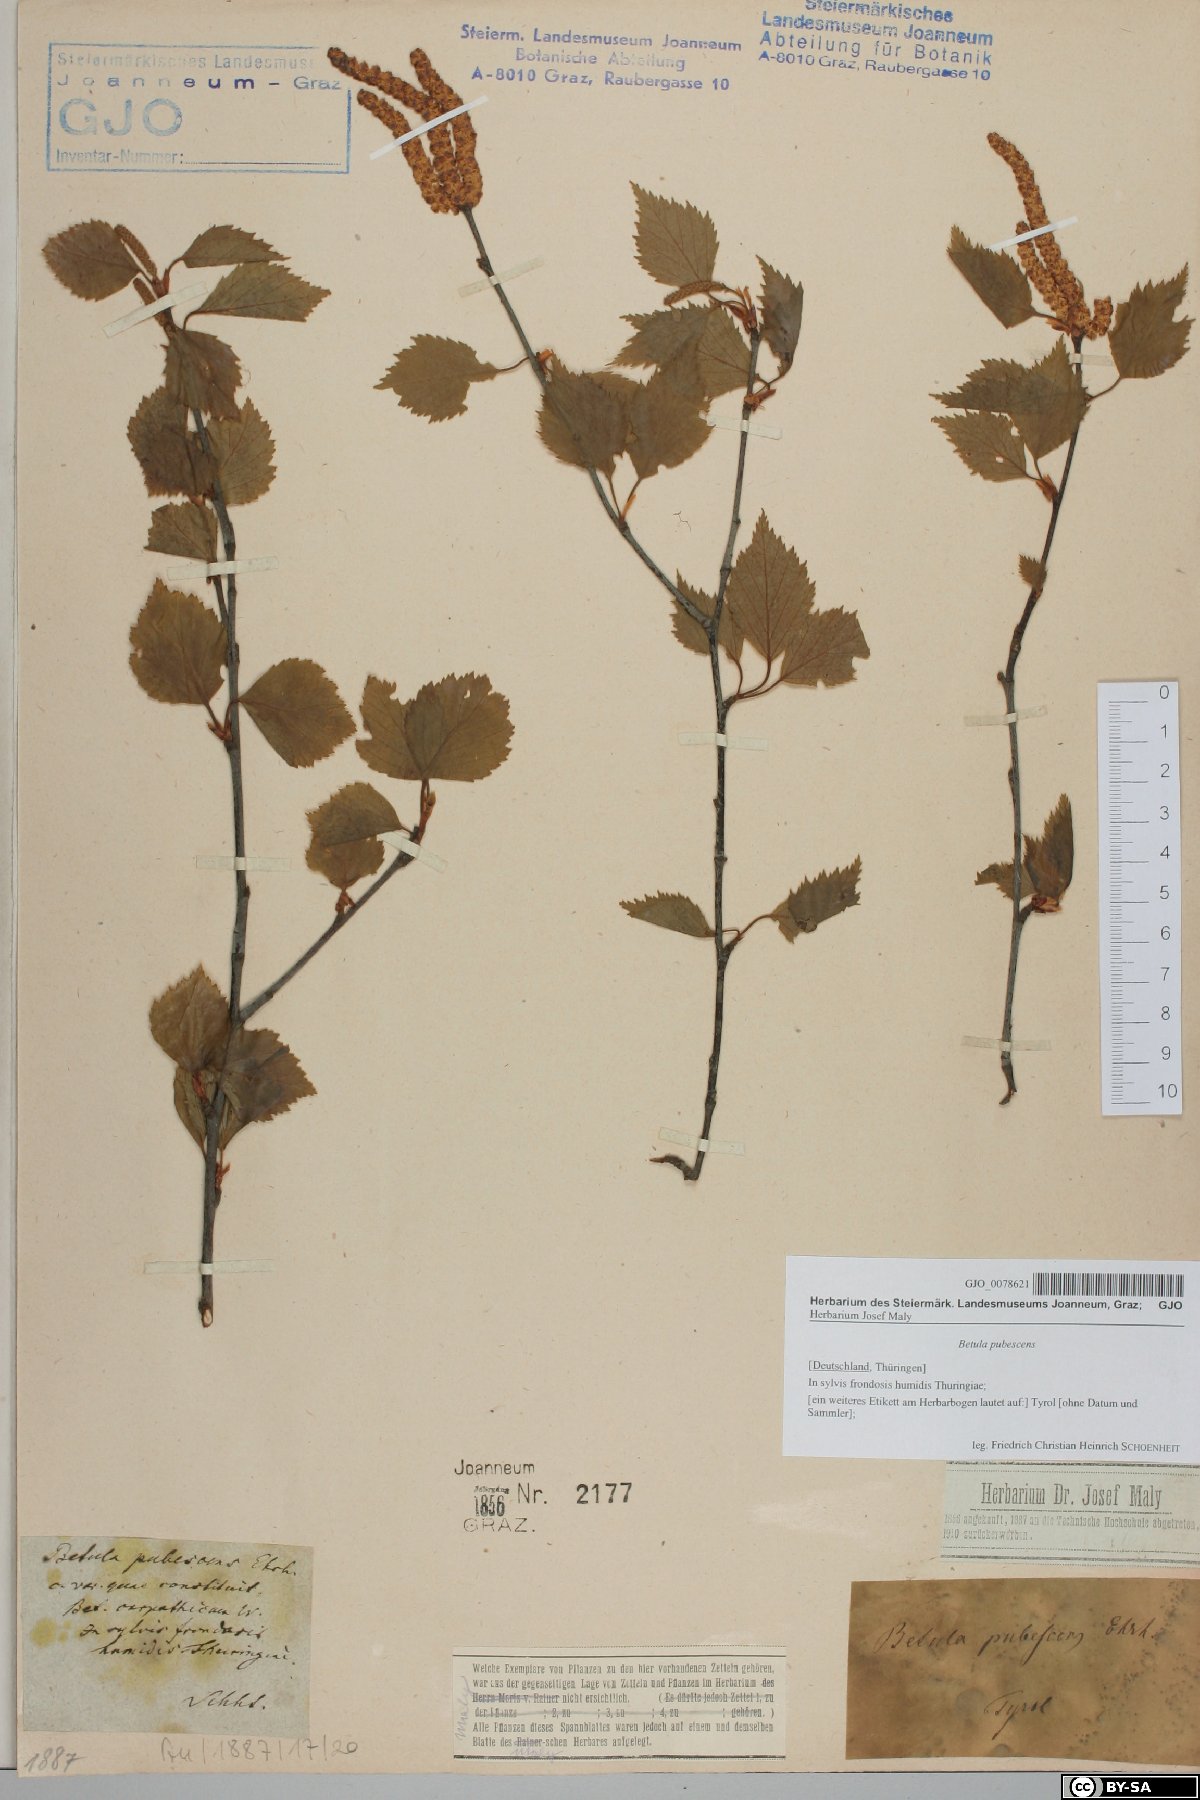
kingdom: Plantae
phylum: Tracheophyta
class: Magnoliopsida
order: Fagales
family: Betulaceae
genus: Betula
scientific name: Betula pubescens
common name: Downy birch
